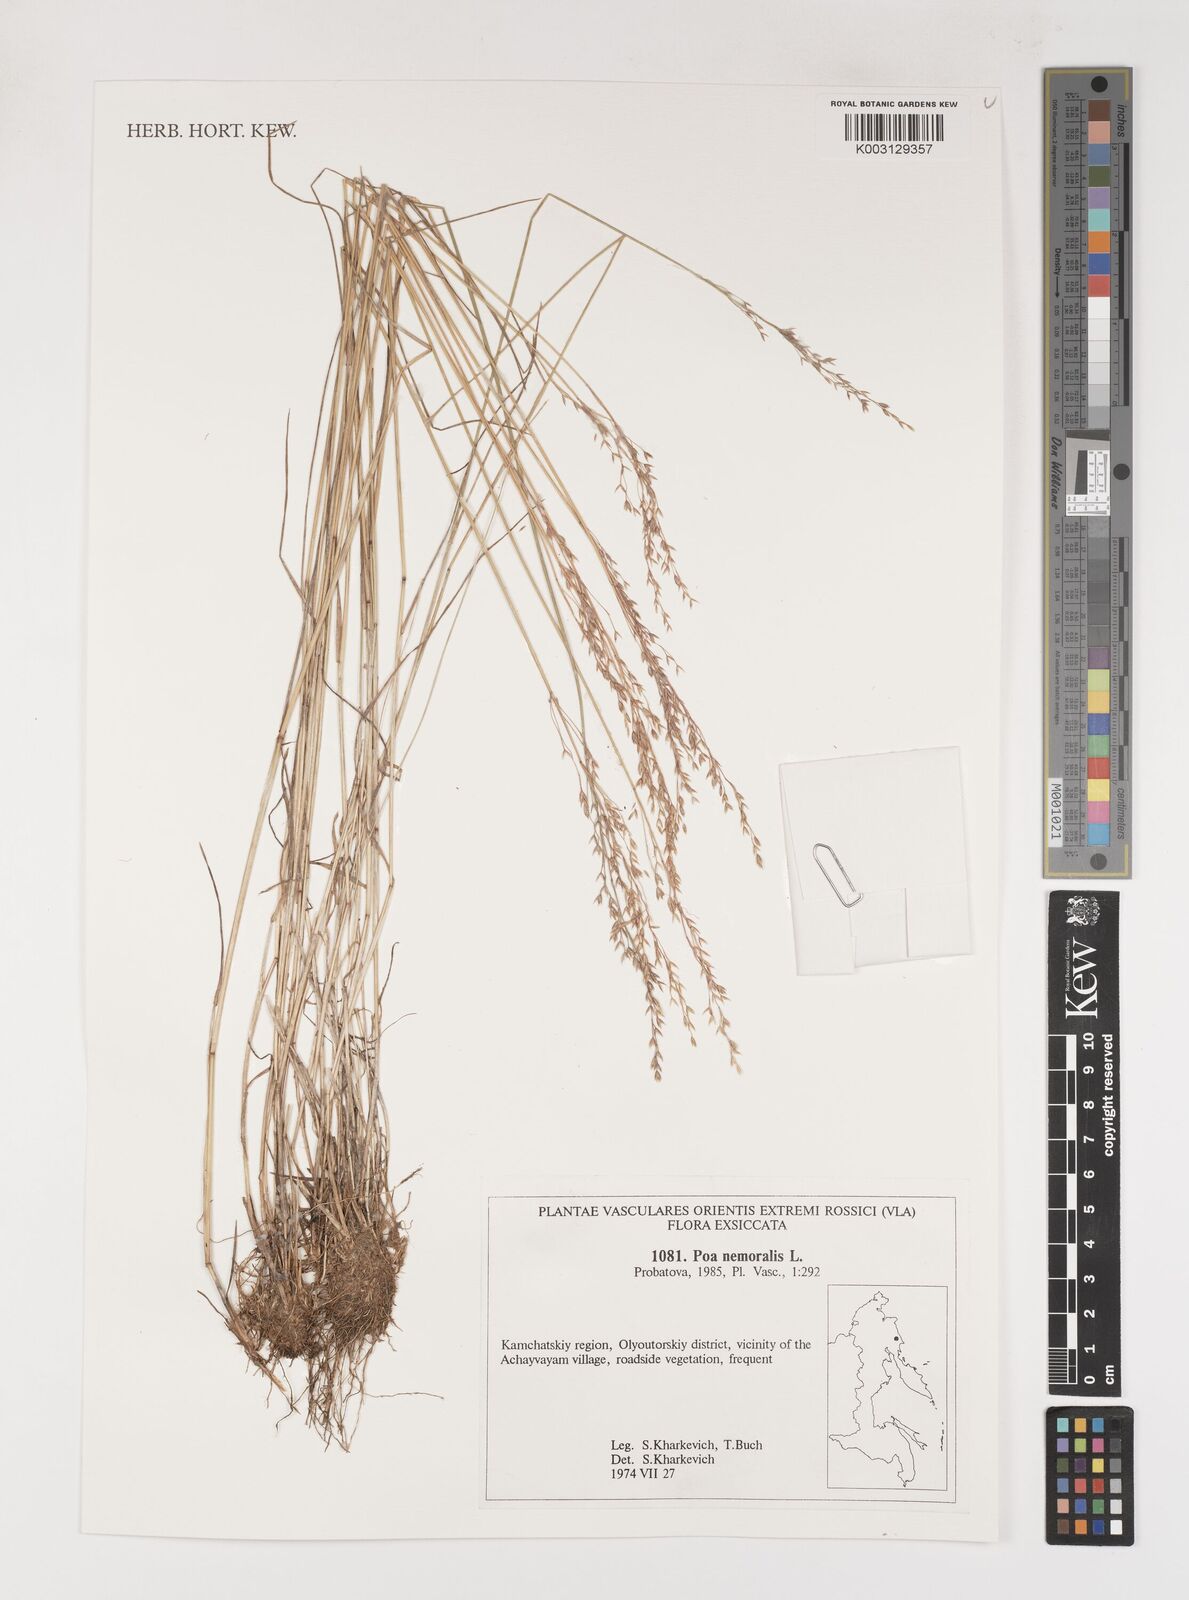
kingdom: Plantae
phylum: Tracheophyta
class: Liliopsida
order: Poales
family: Poaceae
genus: Poa
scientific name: Poa nemoralis
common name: Wood bluegrass
